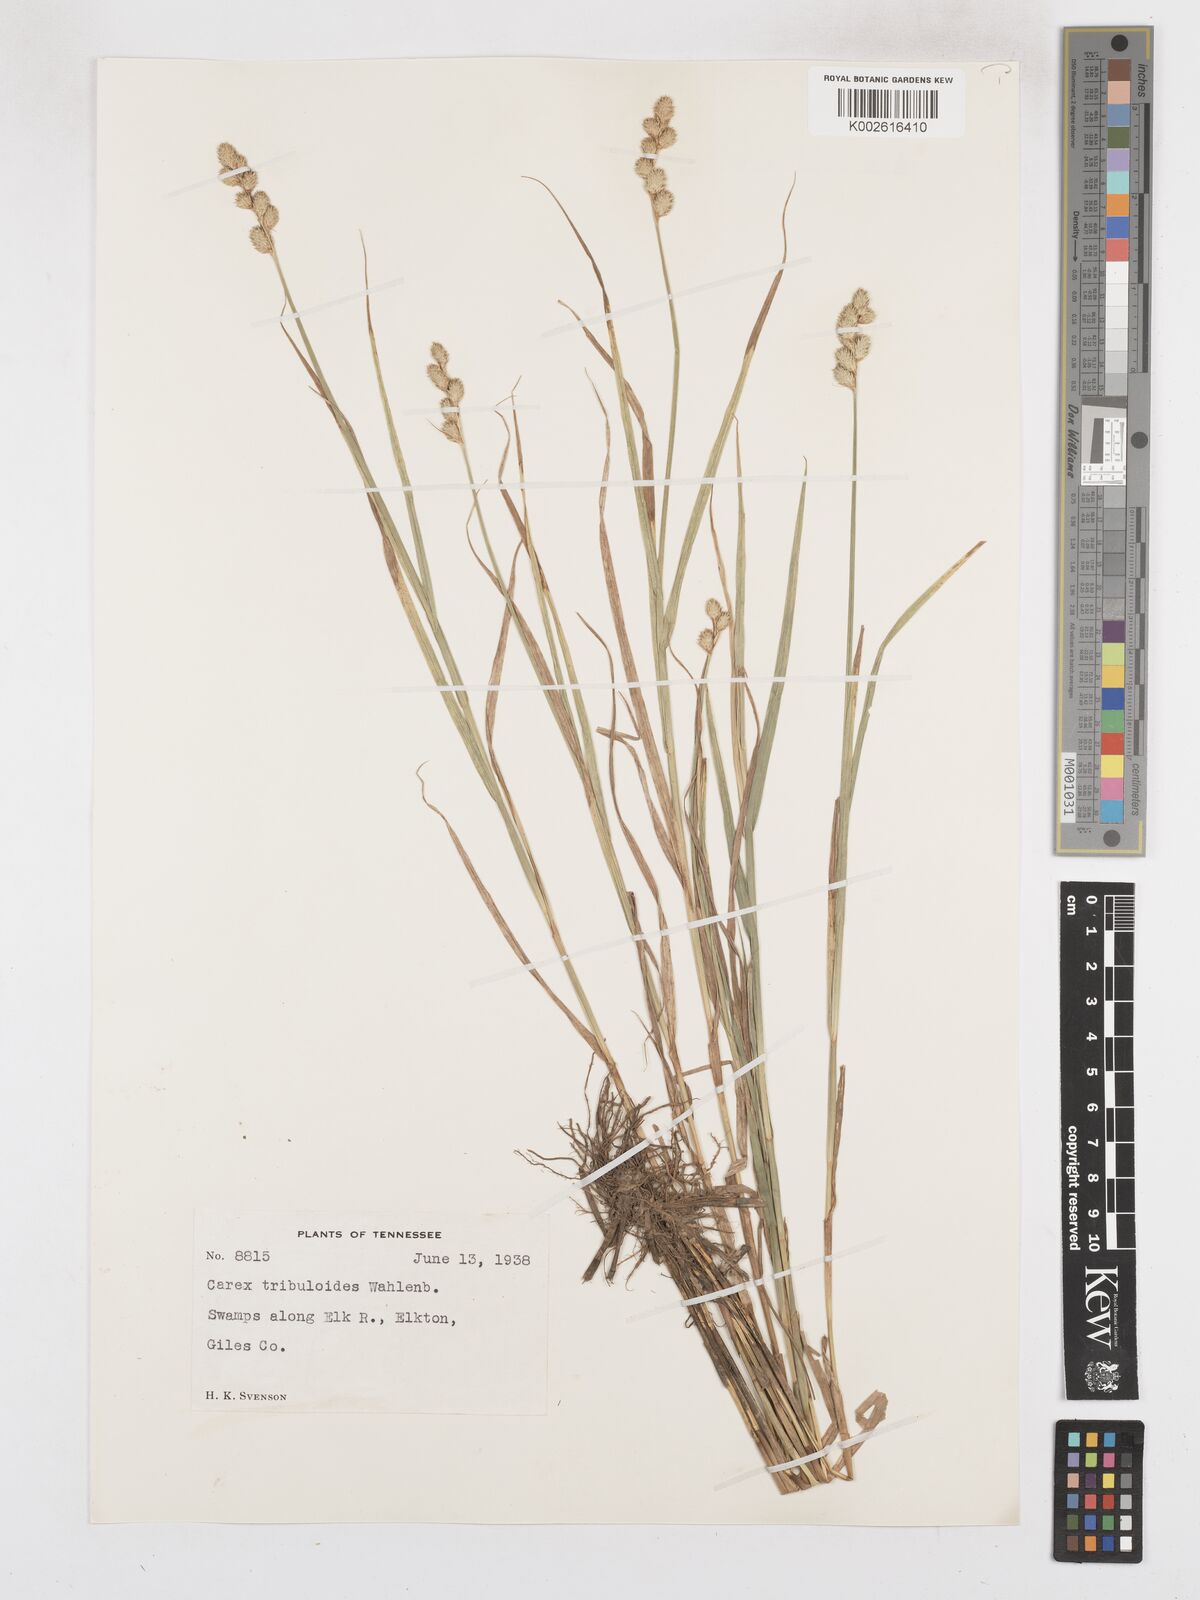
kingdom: Plantae
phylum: Tracheophyta
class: Liliopsida
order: Poales
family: Cyperaceae
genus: Carex
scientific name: Carex tribuloides
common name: Blunt broom sedge
